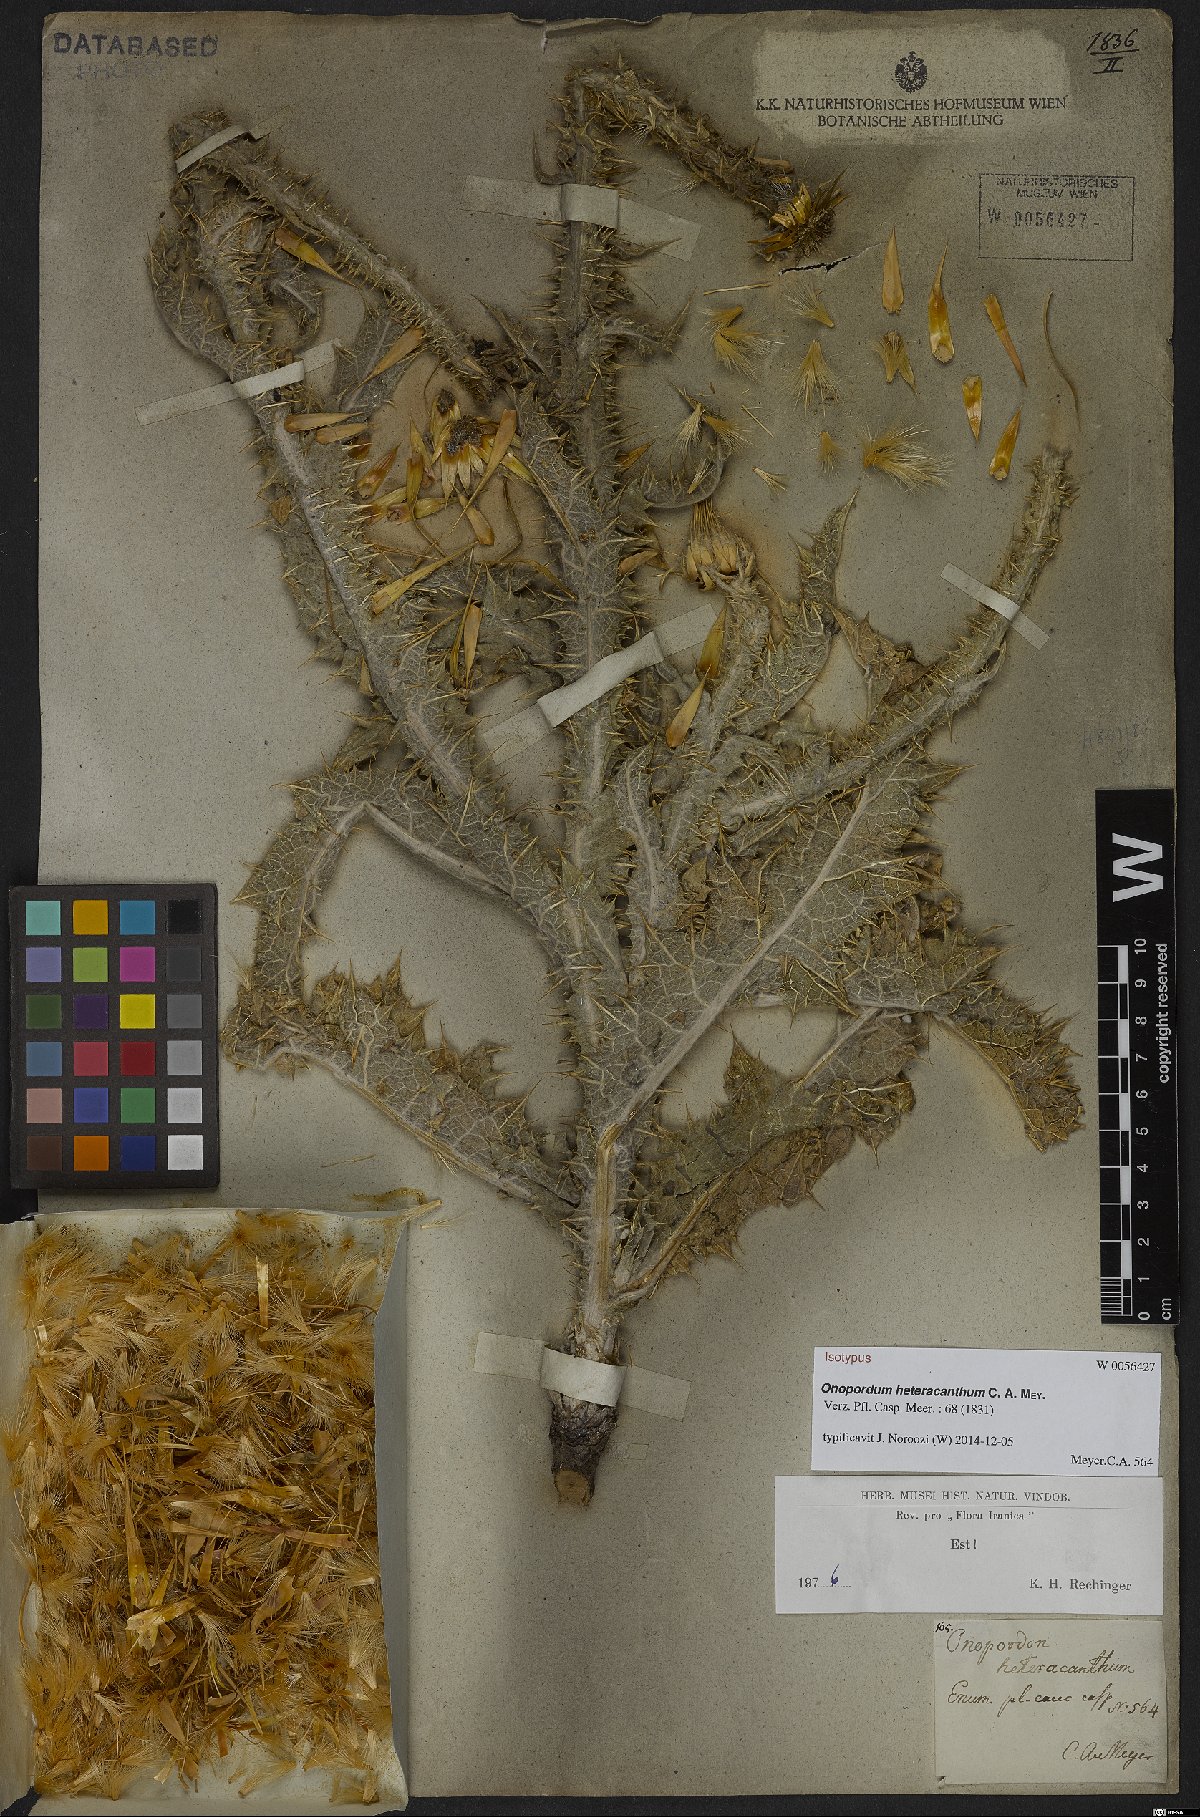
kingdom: Plantae
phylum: Tracheophyta
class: Magnoliopsida
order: Asterales
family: Asteraceae
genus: Onopordum
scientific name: Onopordum heteracanthum
